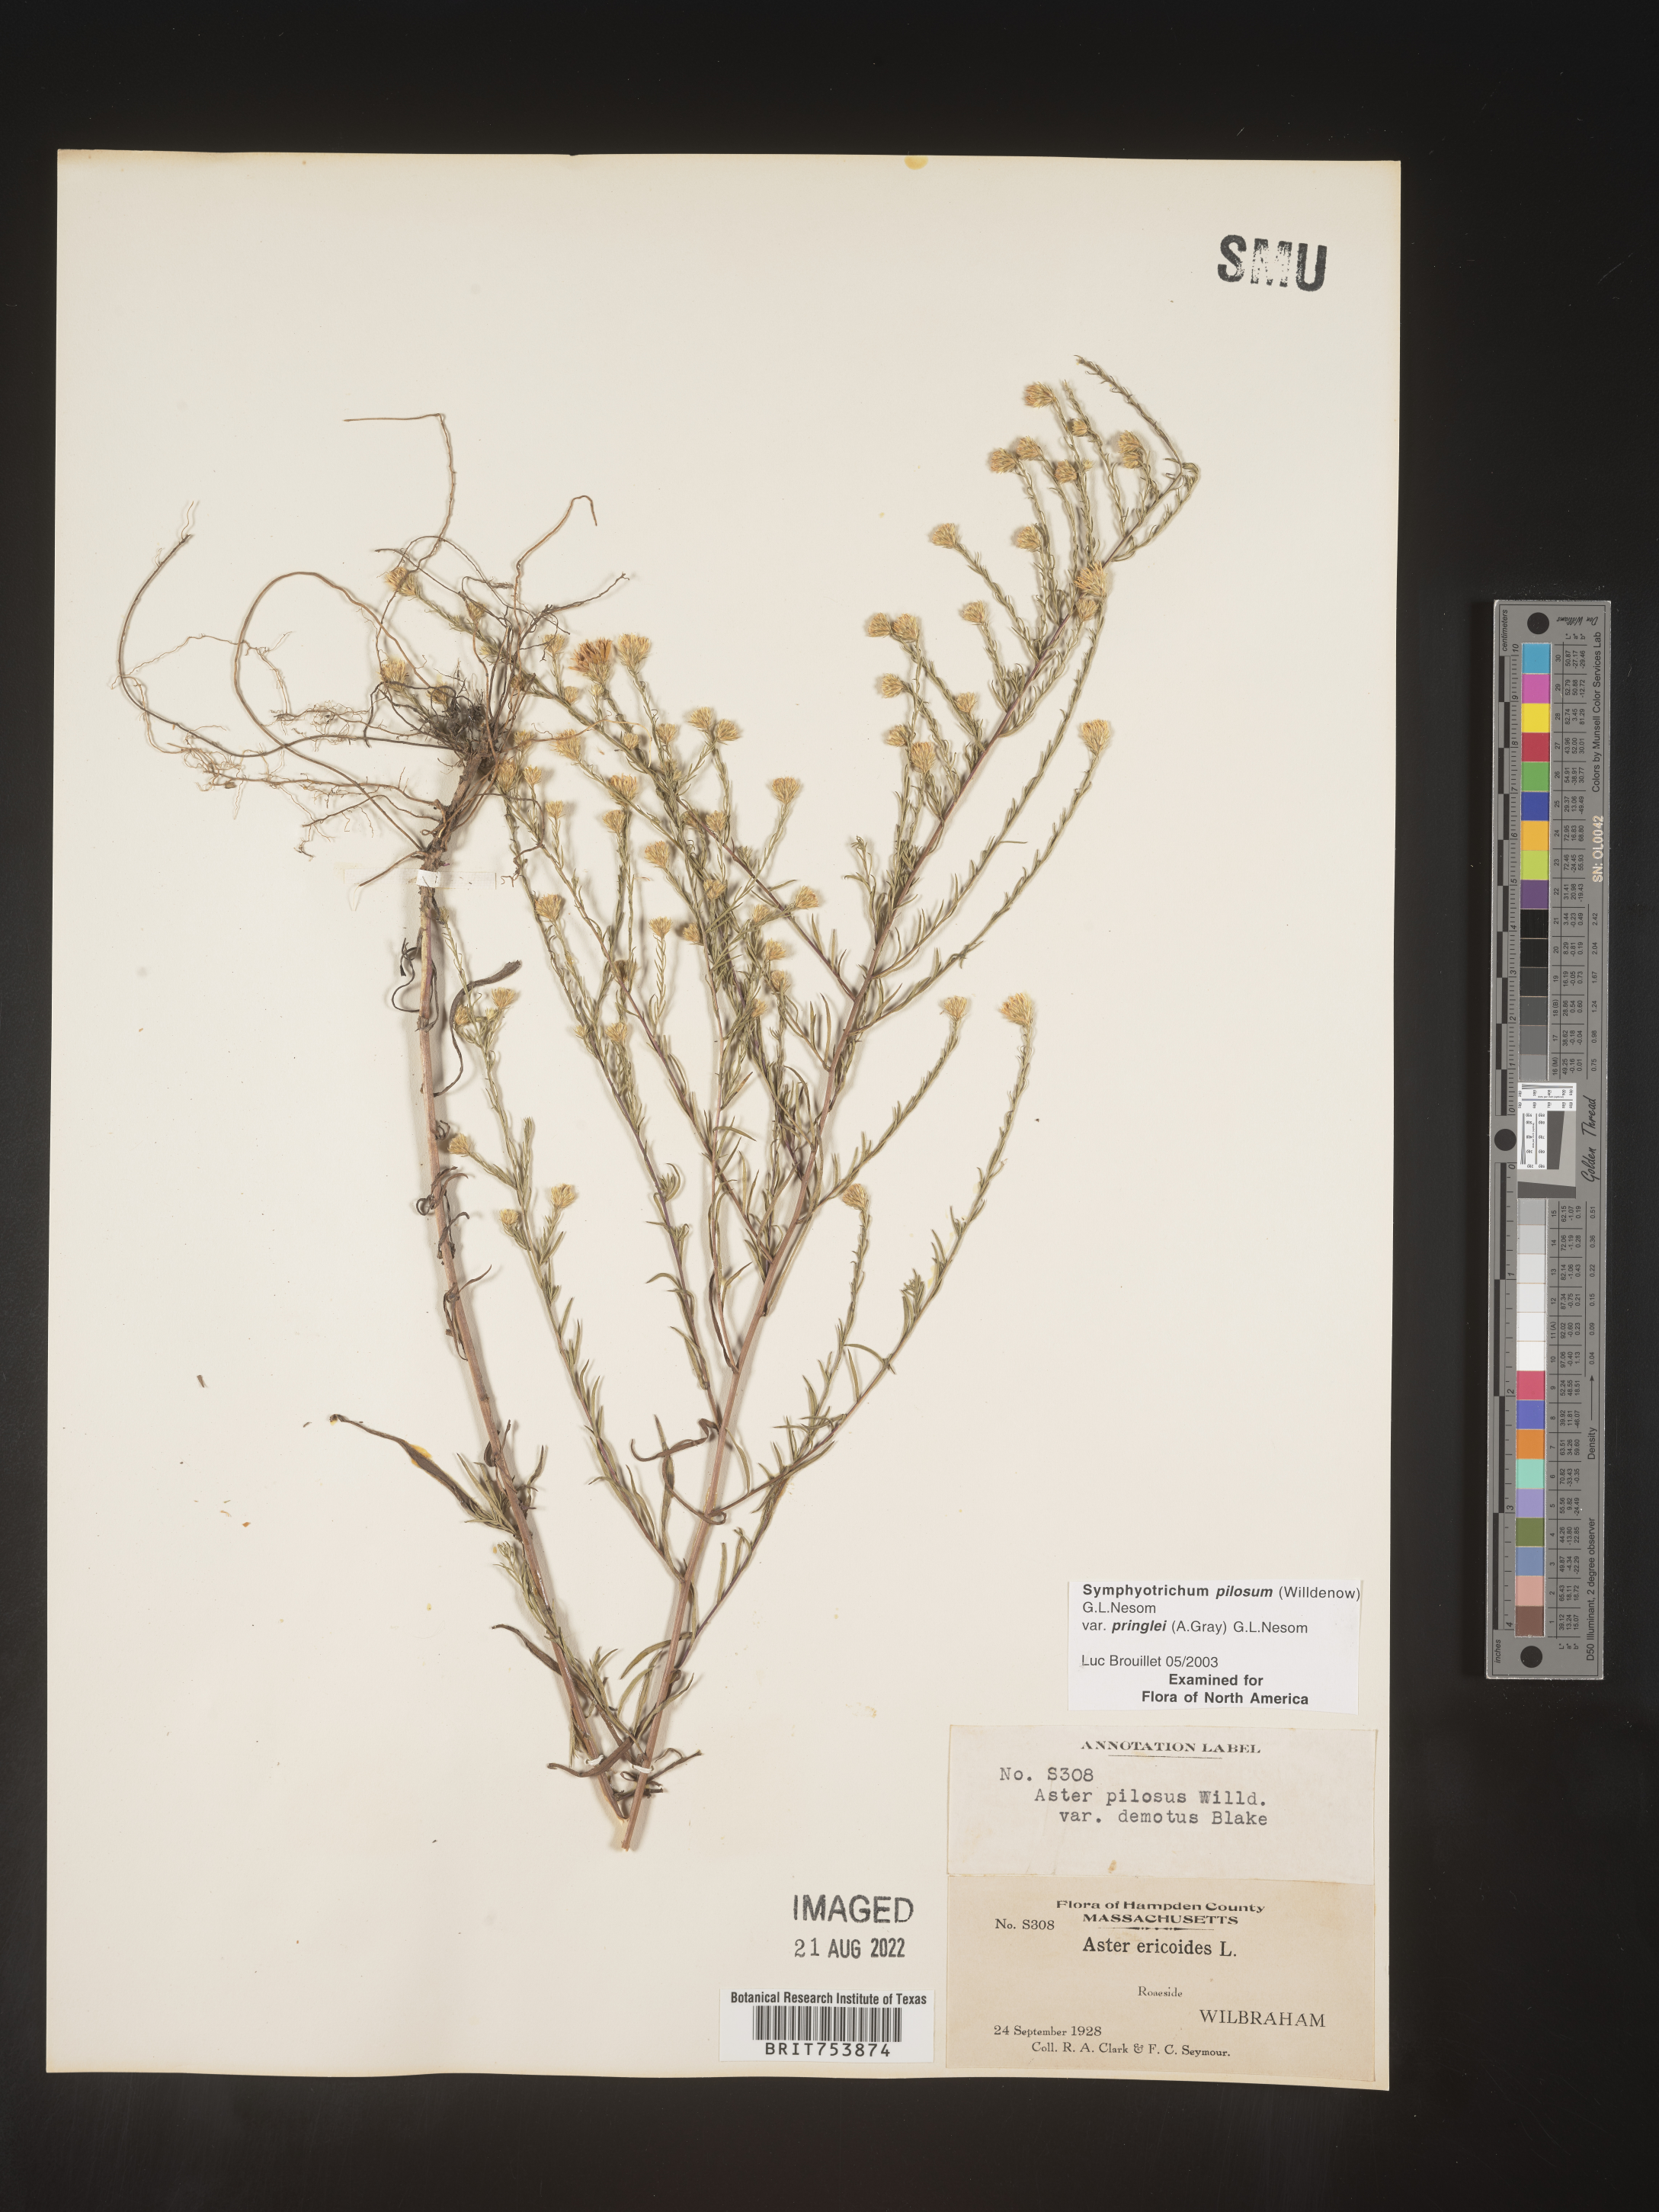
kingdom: Plantae
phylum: Tracheophyta
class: Magnoliopsida
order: Asterales
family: Asteraceae
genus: Symphyotrichum
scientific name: Symphyotrichum pilosum
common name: Awl aster
